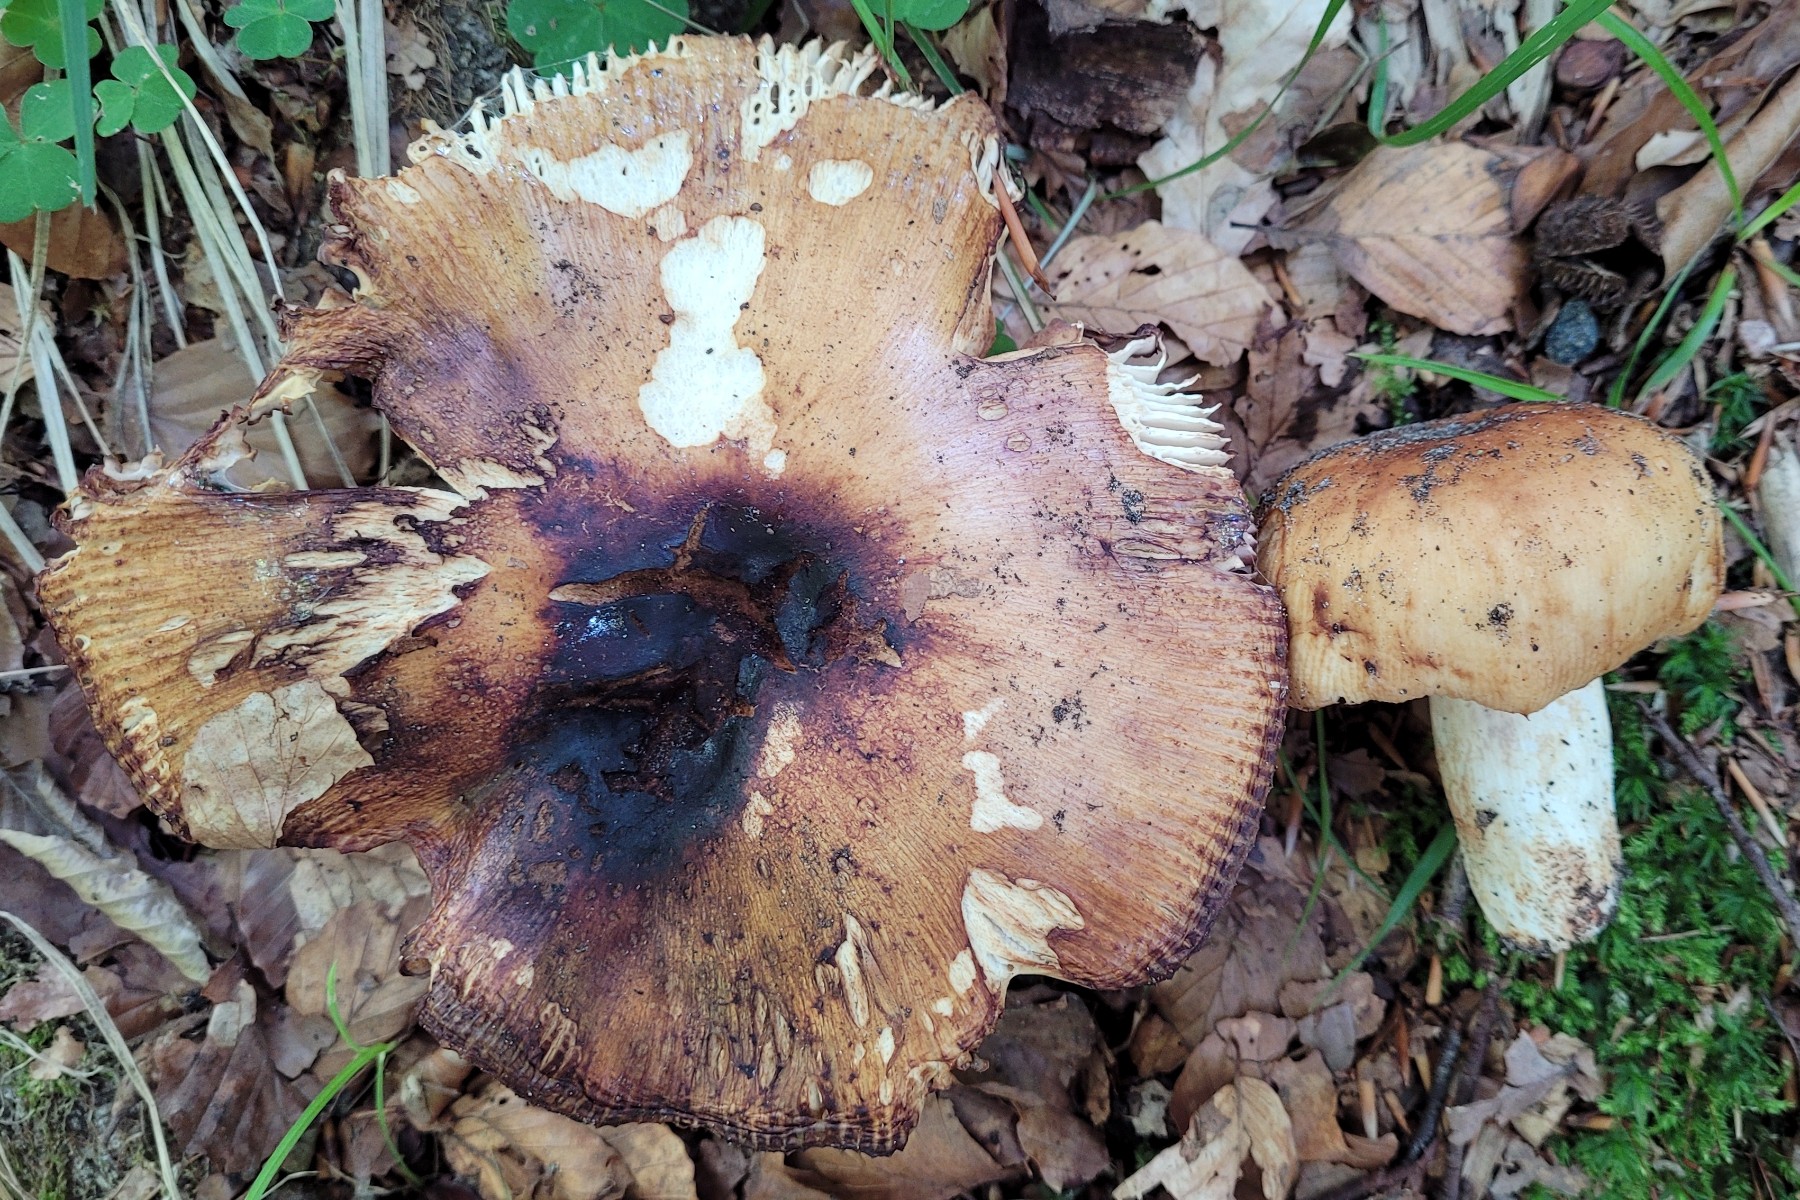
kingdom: Fungi
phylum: Basidiomycota
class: Agaricomycetes
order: Russulales
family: Russulaceae
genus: Russula
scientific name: Russula grata
